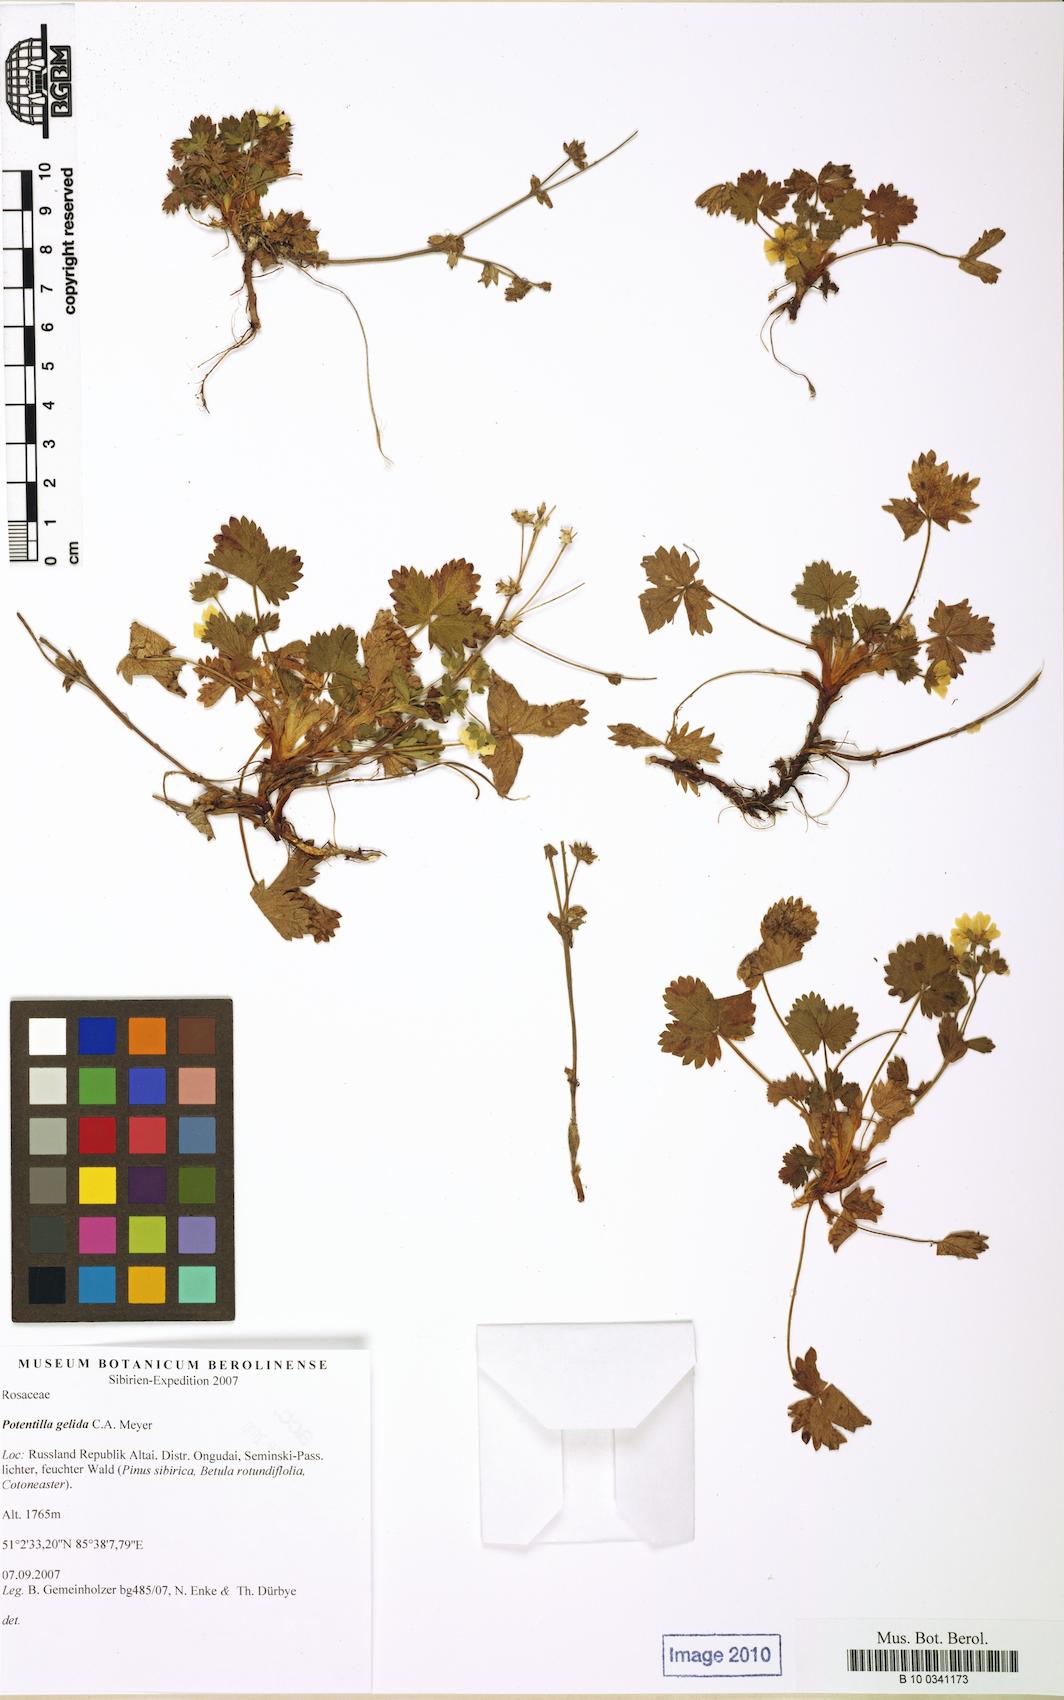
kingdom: Plantae
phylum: Tracheophyta
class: Magnoliopsida
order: Rosales
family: Rosaceae
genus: Potentilla
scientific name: Potentilla crantzii
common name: Alpine cinquefoil
